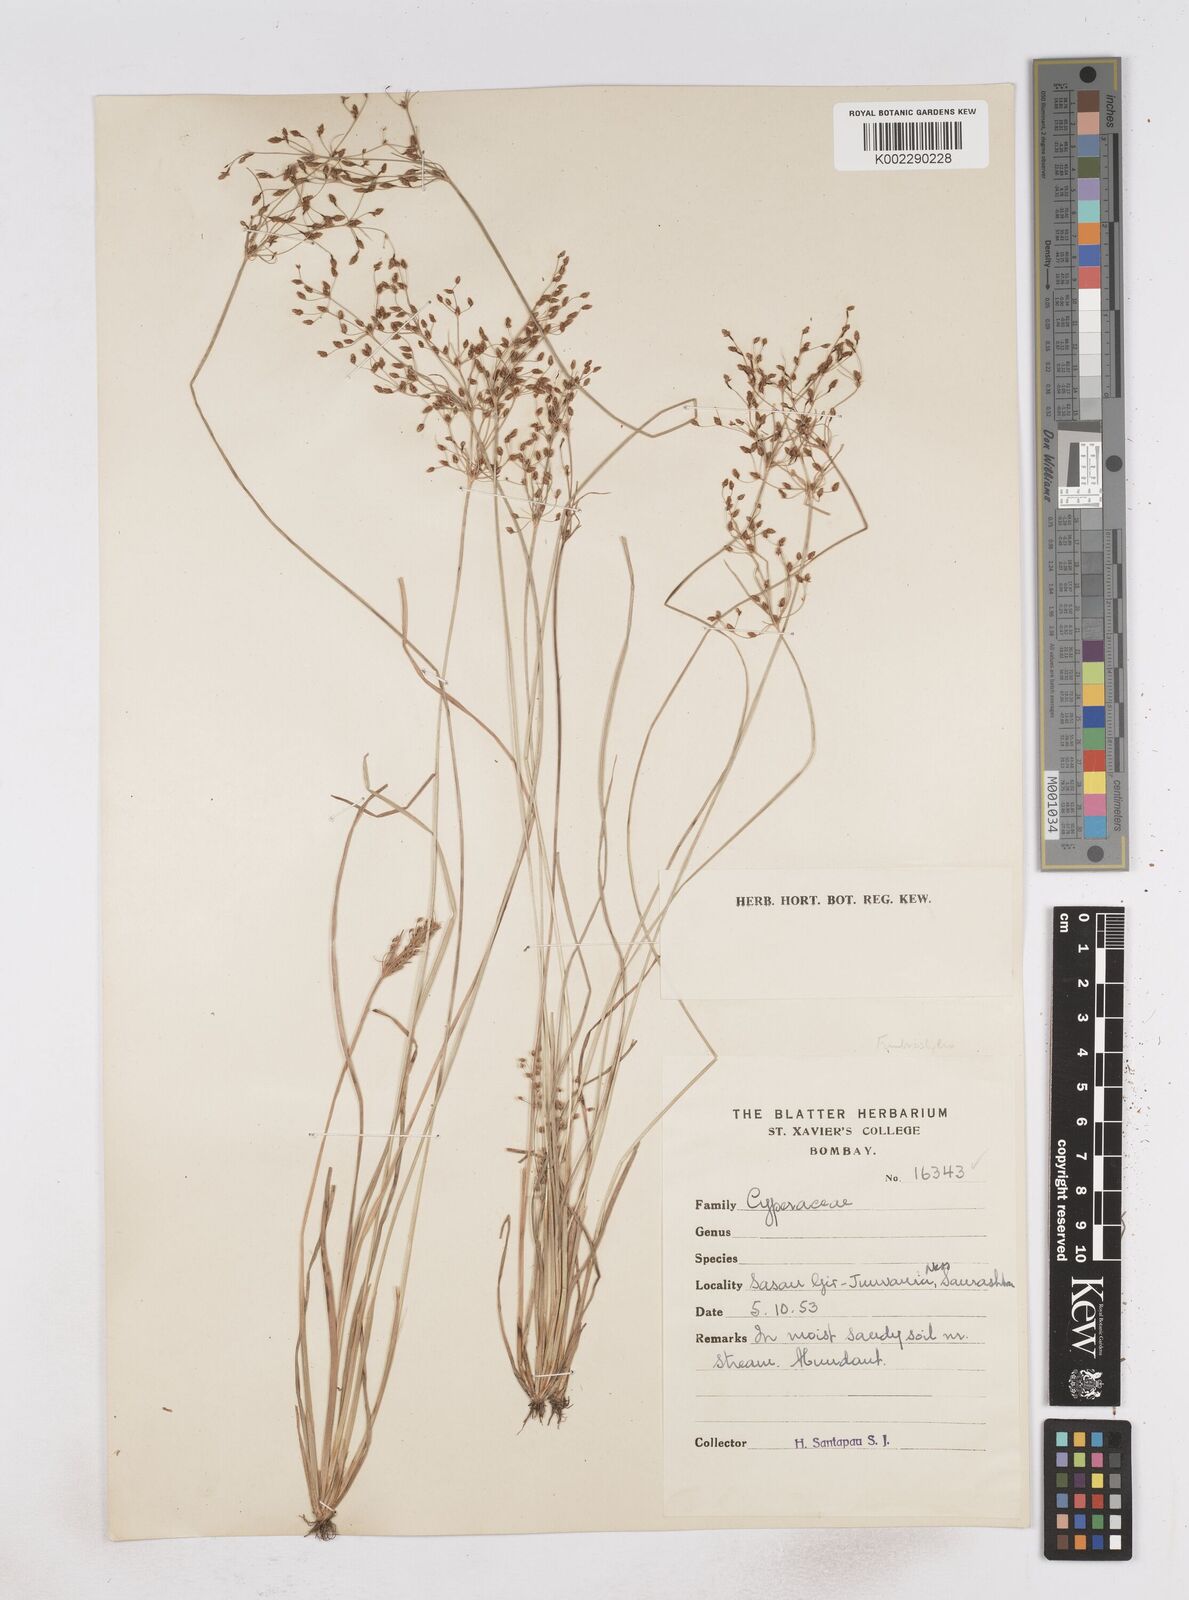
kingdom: Plantae
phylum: Tracheophyta
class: Liliopsida
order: Poales
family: Cyperaceae
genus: Fimbristylis
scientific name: Fimbristylis
